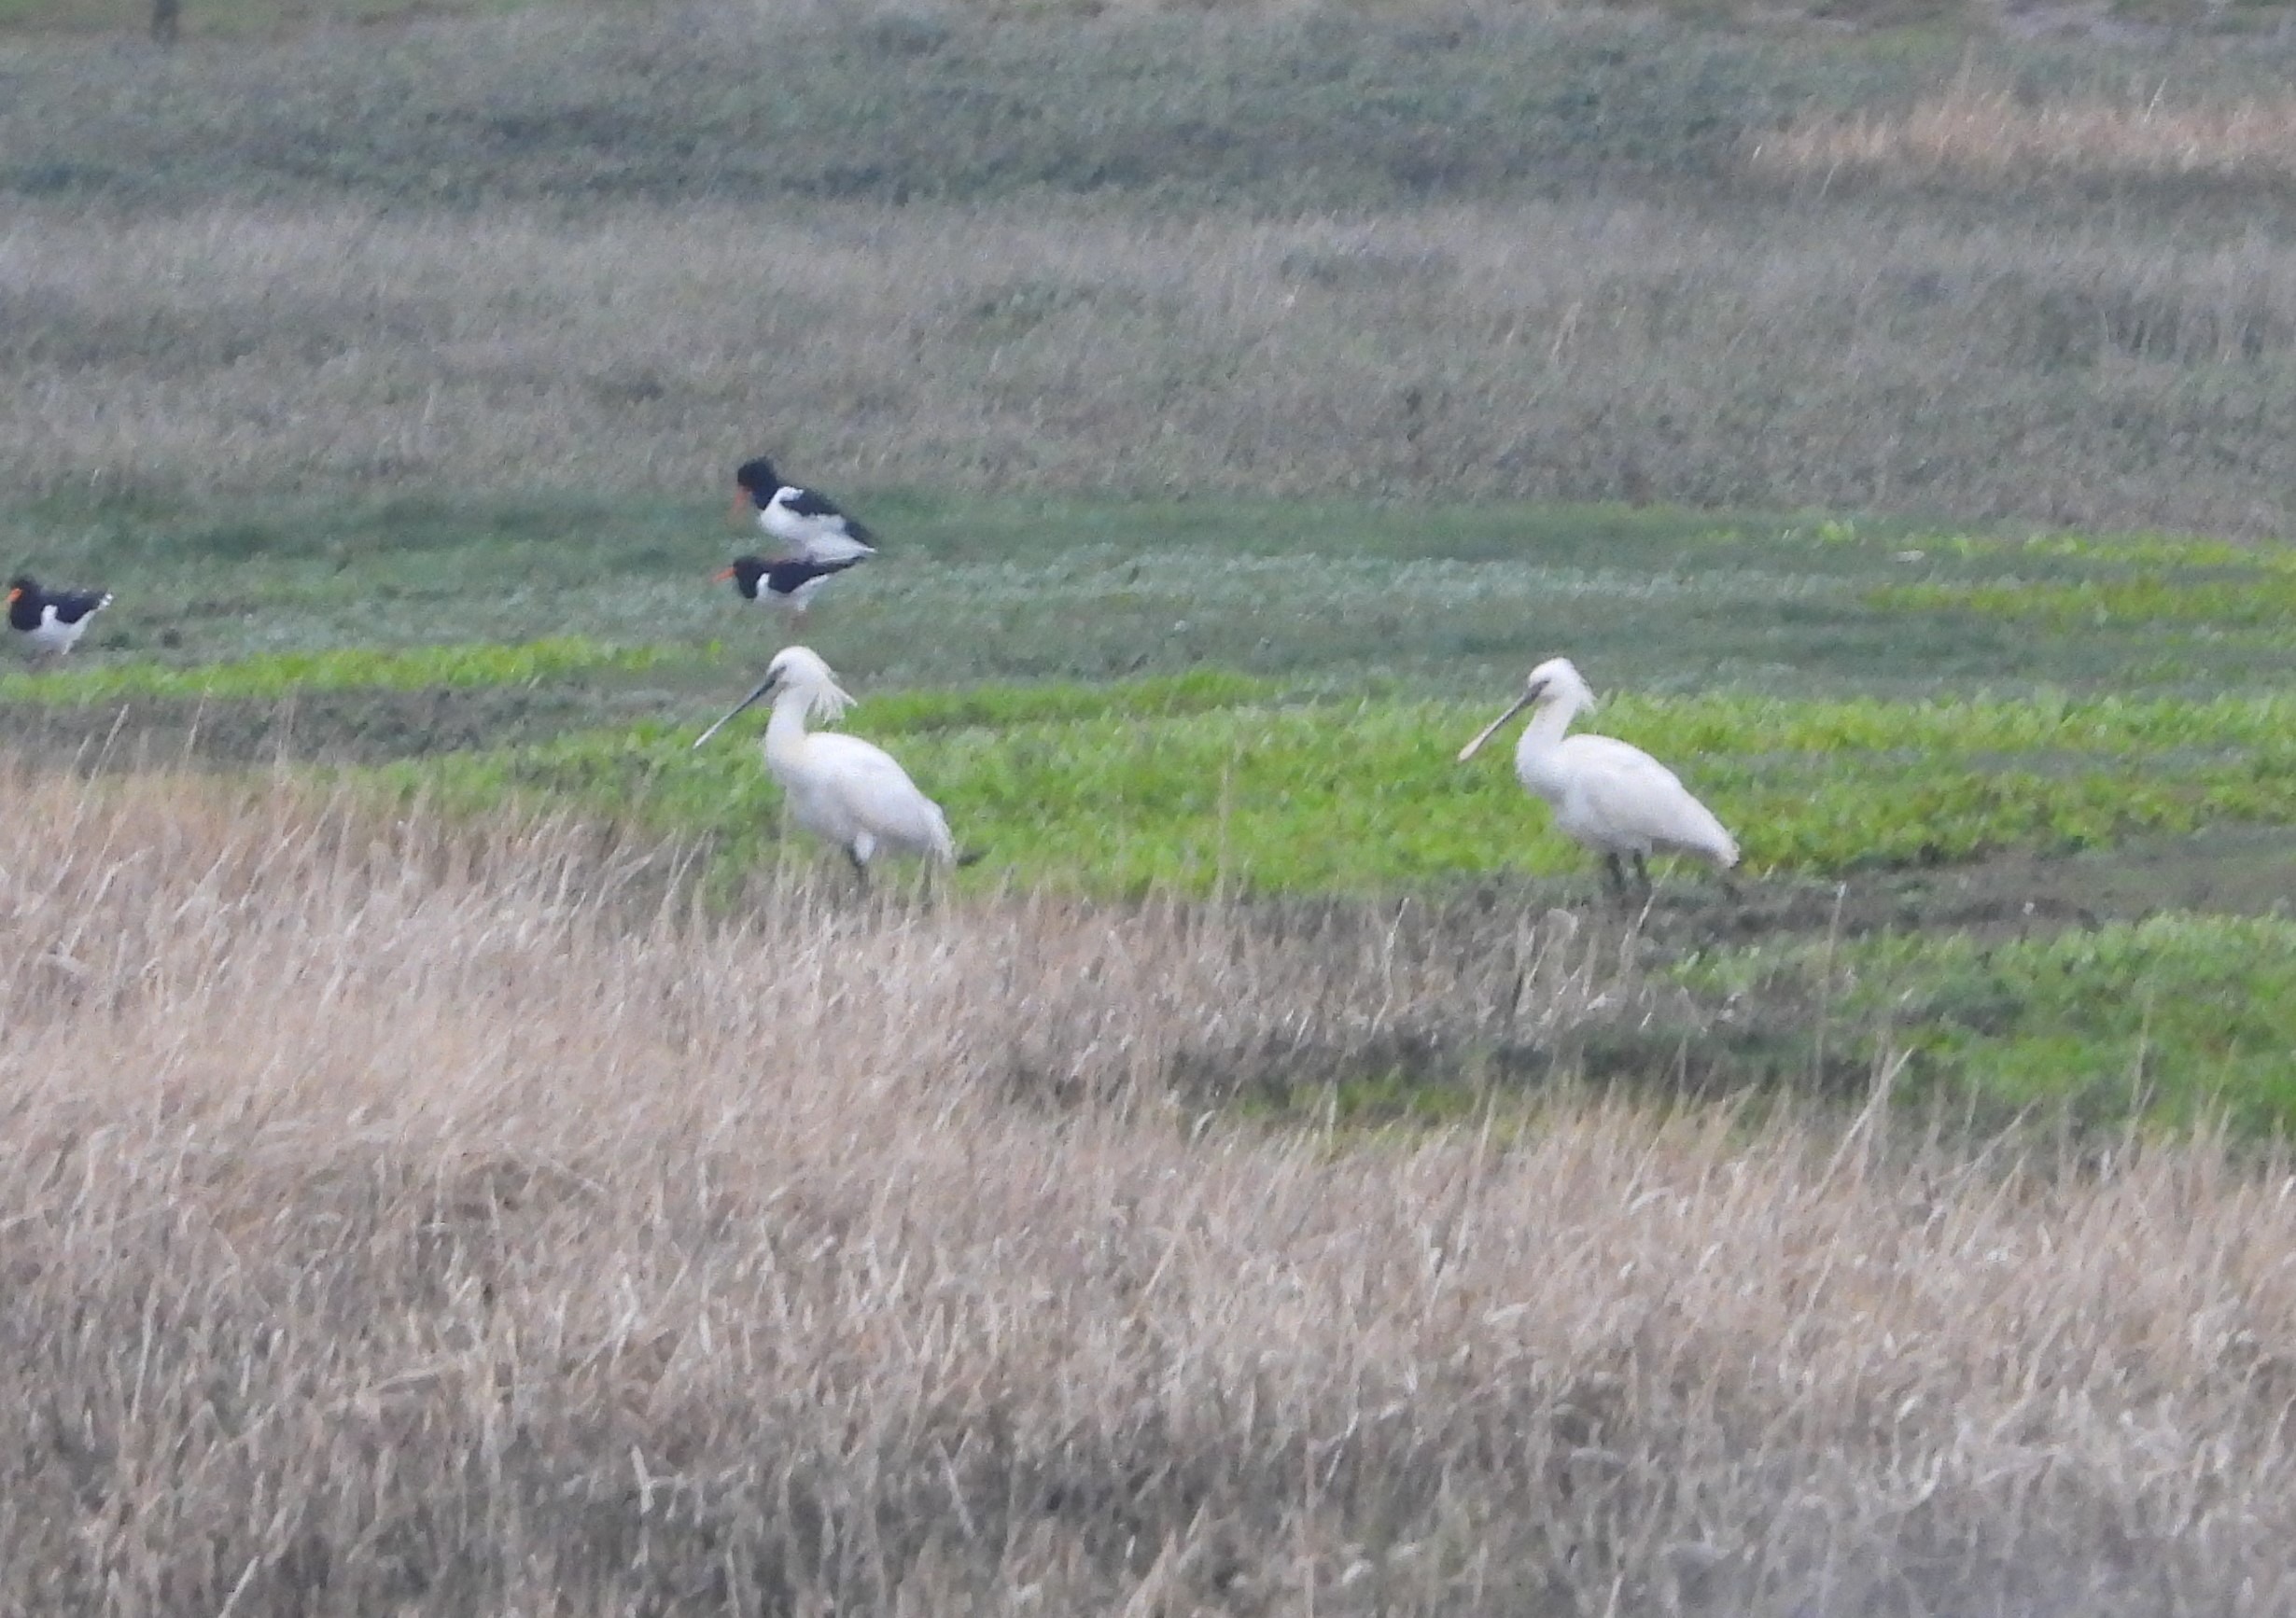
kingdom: Animalia
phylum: Chordata
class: Aves
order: Pelecaniformes
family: Threskiornithidae
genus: Platalea
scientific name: Platalea leucorodia
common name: Skestork
